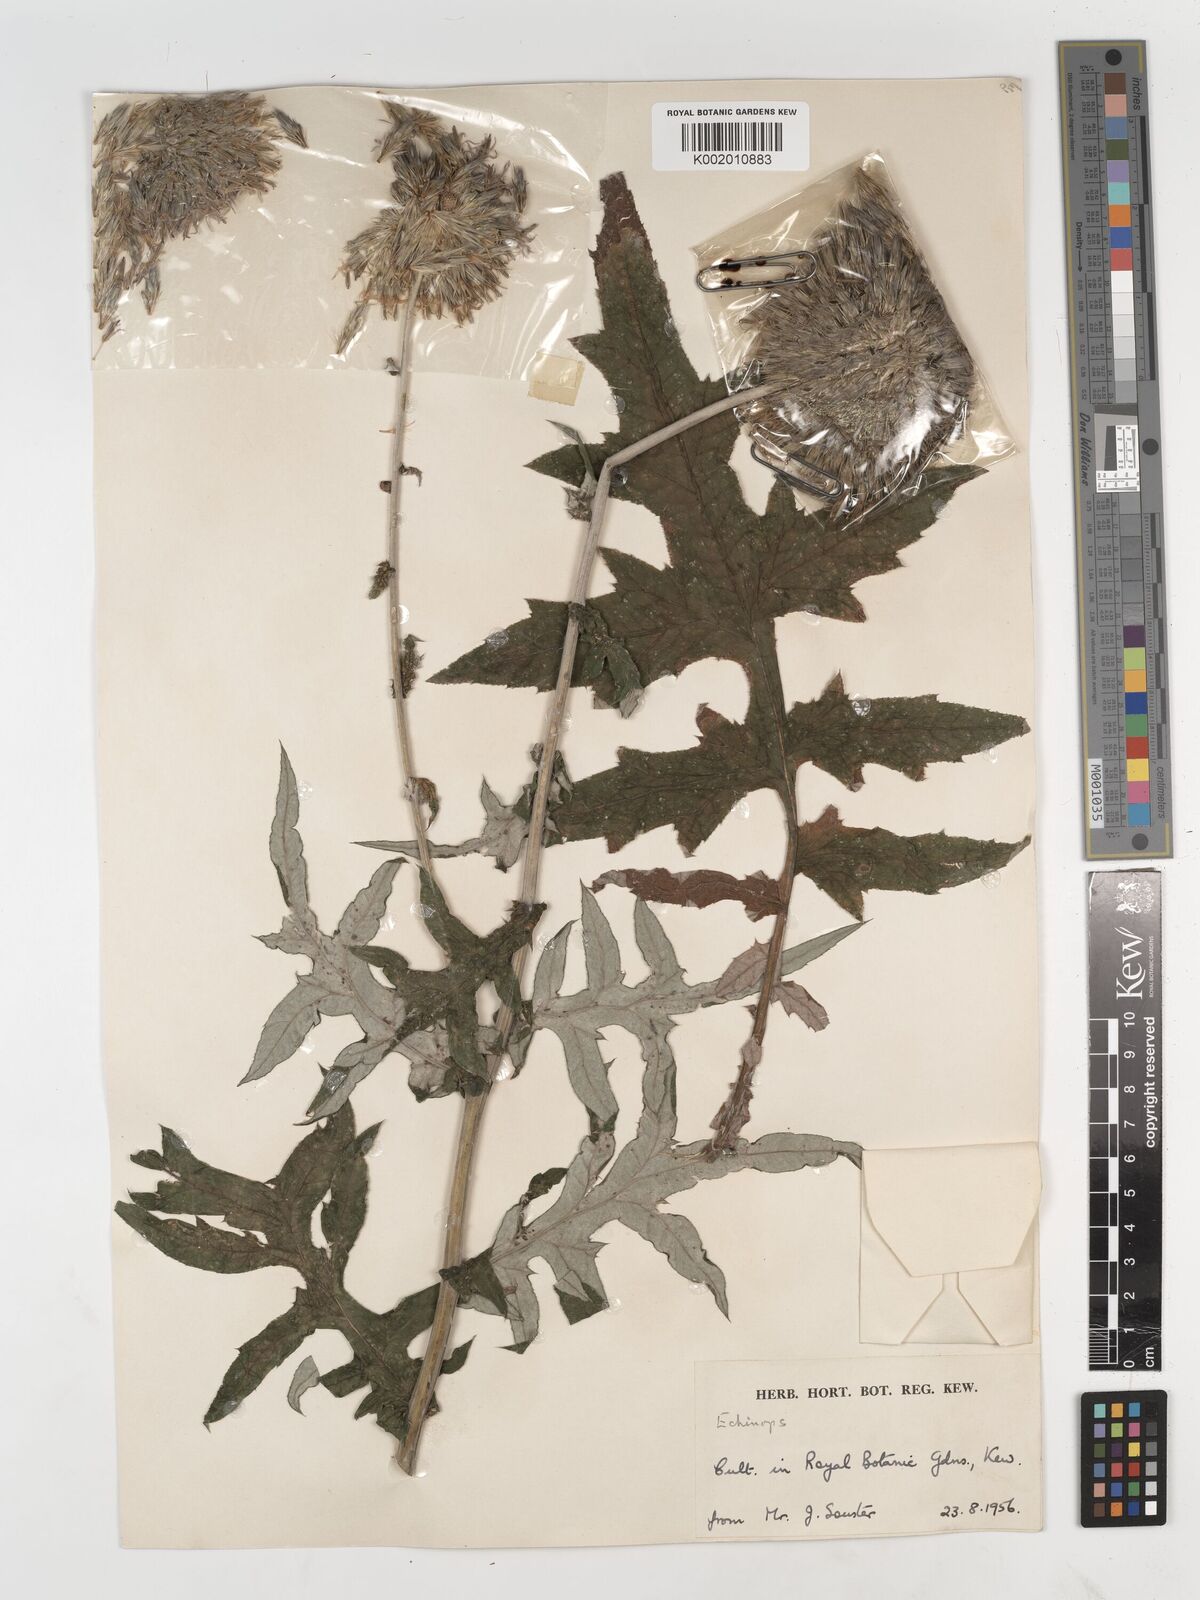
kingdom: Plantae
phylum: Tracheophyta
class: Magnoliopsida
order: Asterales
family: Asteraceae
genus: Echinops
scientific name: Echinops
